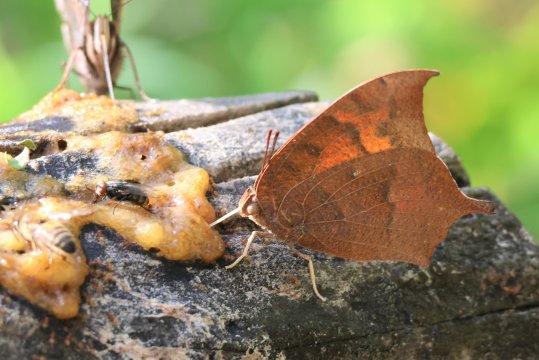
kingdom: Animalia
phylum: Arthropoda
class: Insecta
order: Lepidoptera
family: Nymphalidae
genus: Anaea
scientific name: Anaea andria
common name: Goatweed Leafwing
